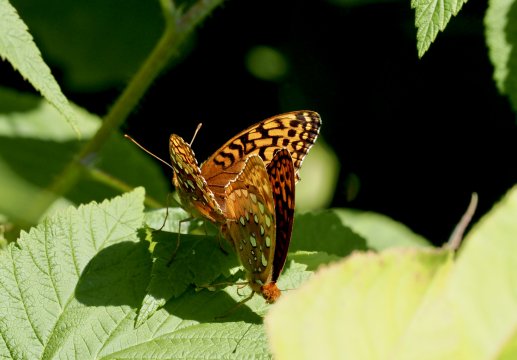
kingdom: Animalia
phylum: Arthropoda
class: Insecta
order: Lepidoptera
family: Nymphalidae
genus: Speyeria
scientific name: Speyeria cybele
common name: Great Spangled Fritillary
